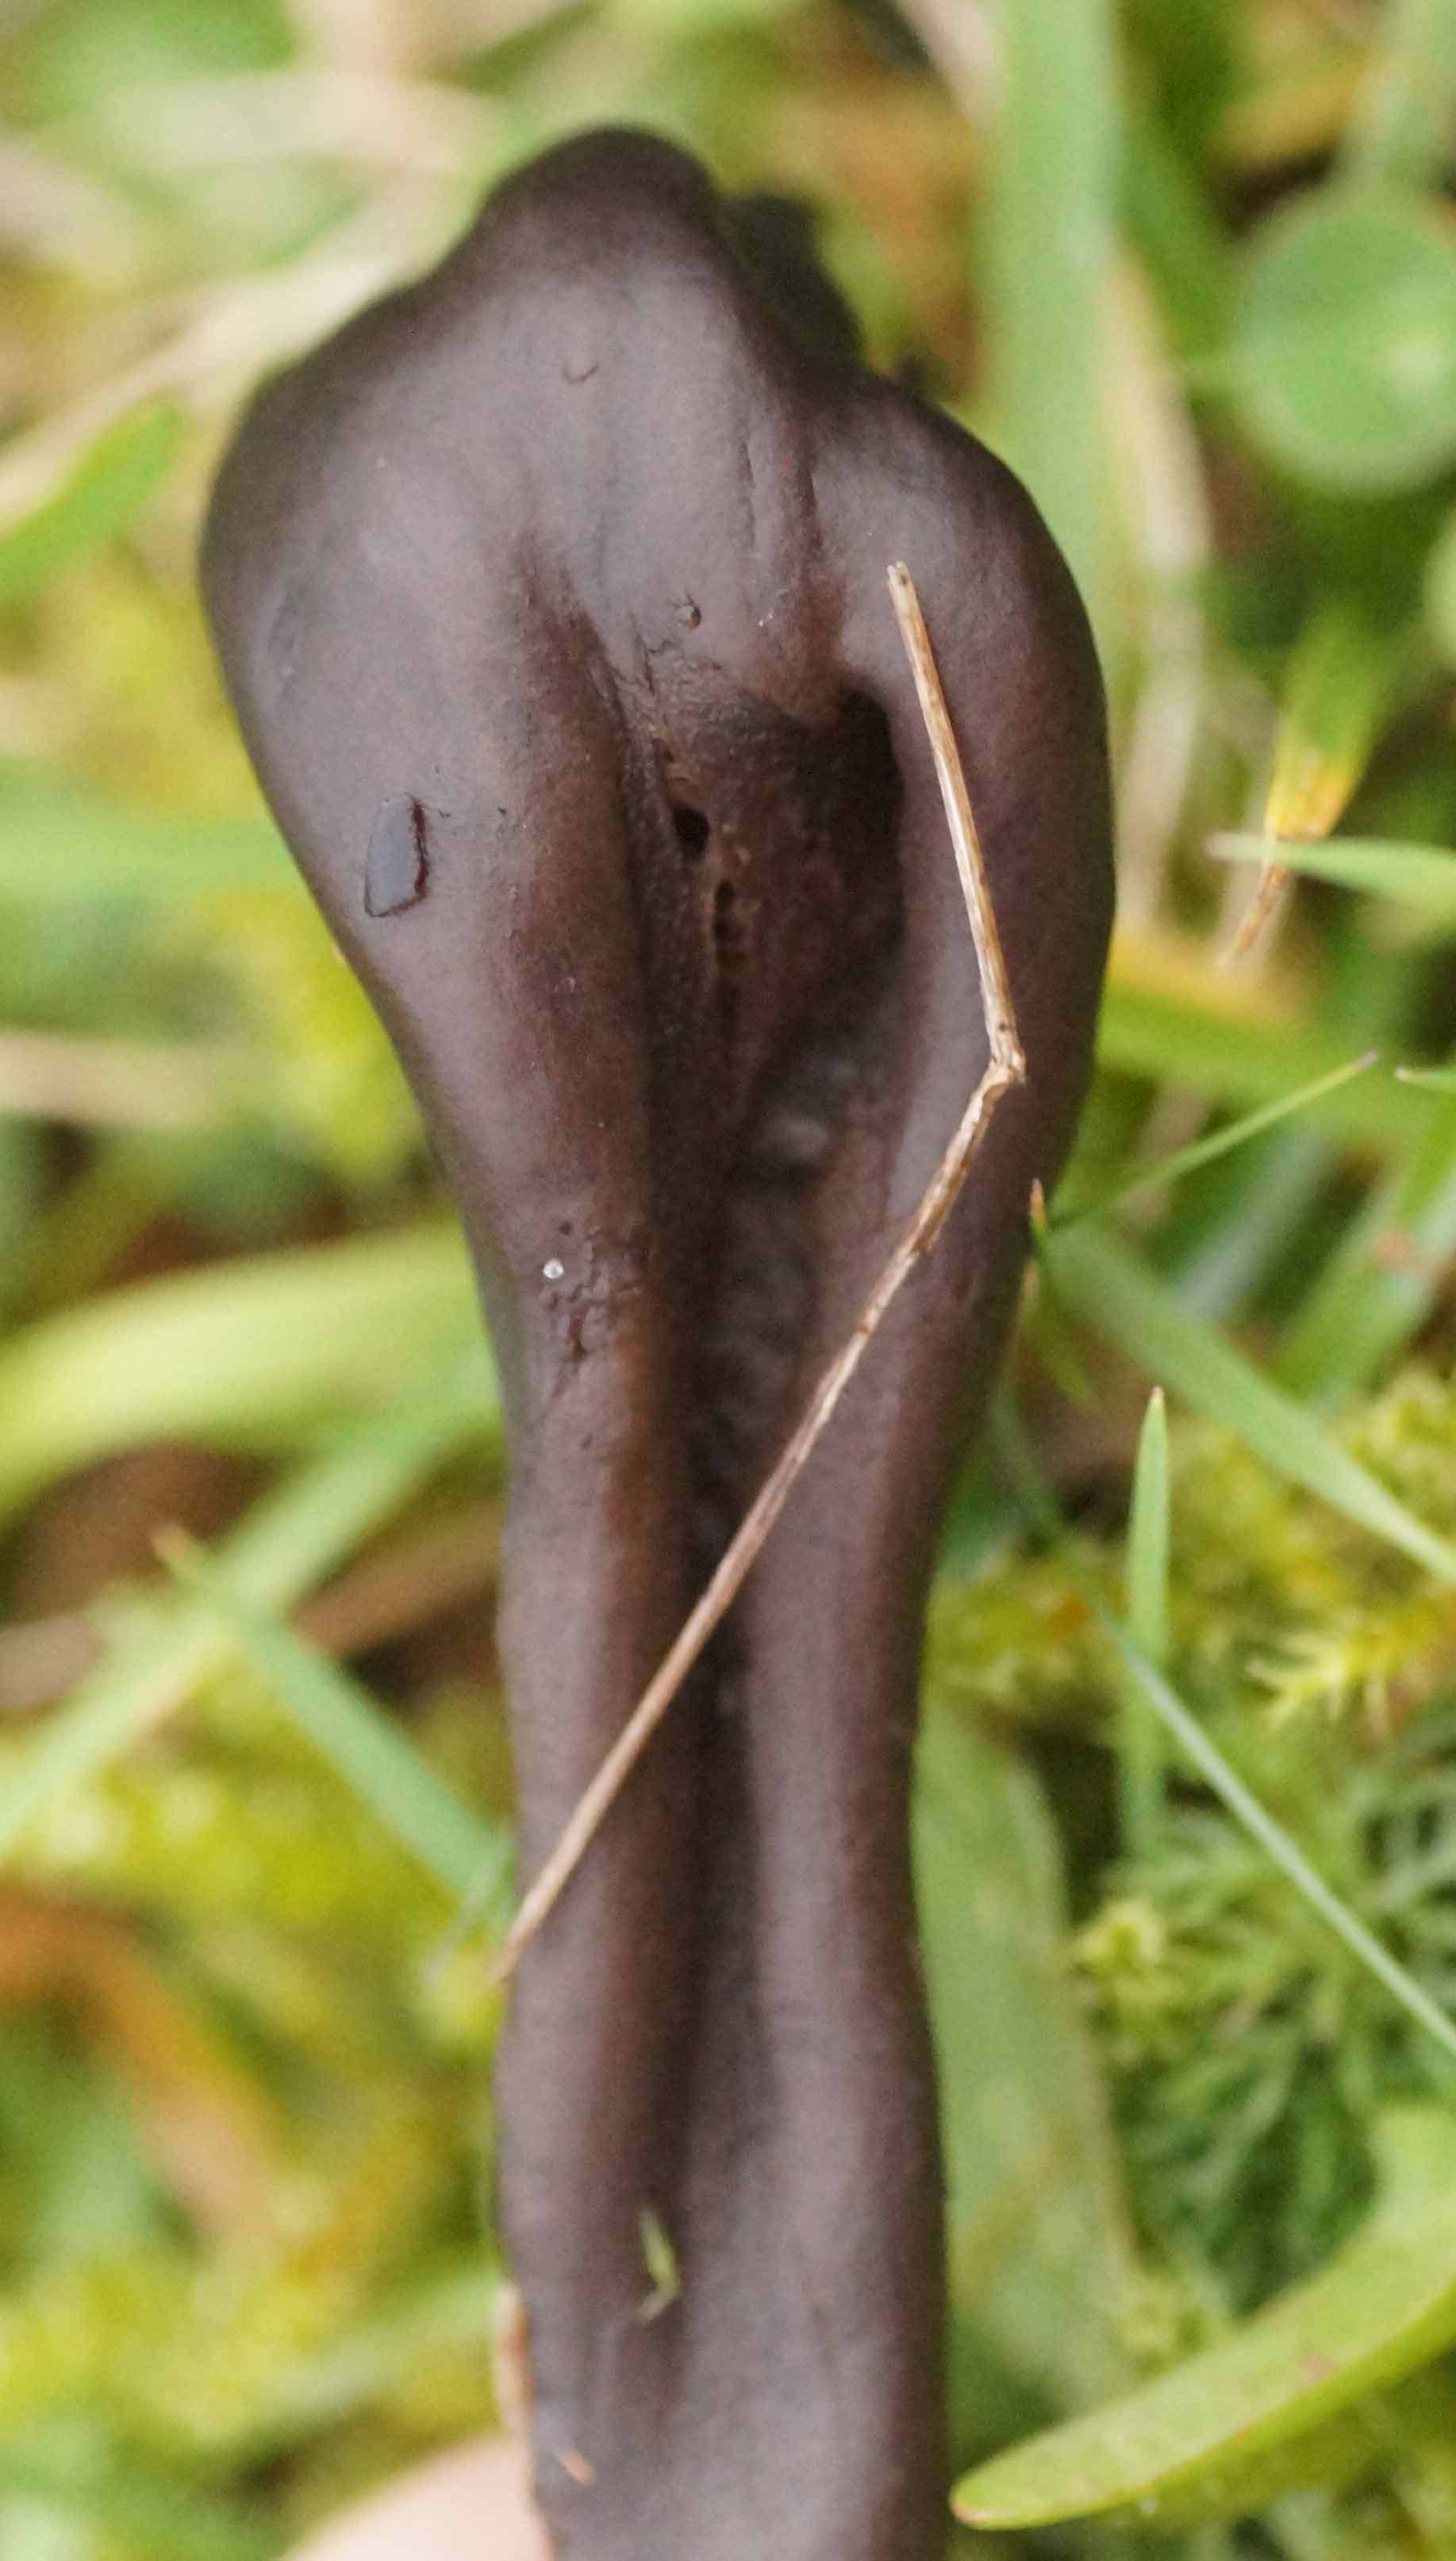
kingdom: Fungi
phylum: Ascomycota
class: Geoglossomycetes
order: Geoglossales
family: Geoglossaceae
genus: Geoglossum
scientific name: Geoglossum atropurpureum
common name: purpursort farvetunge
